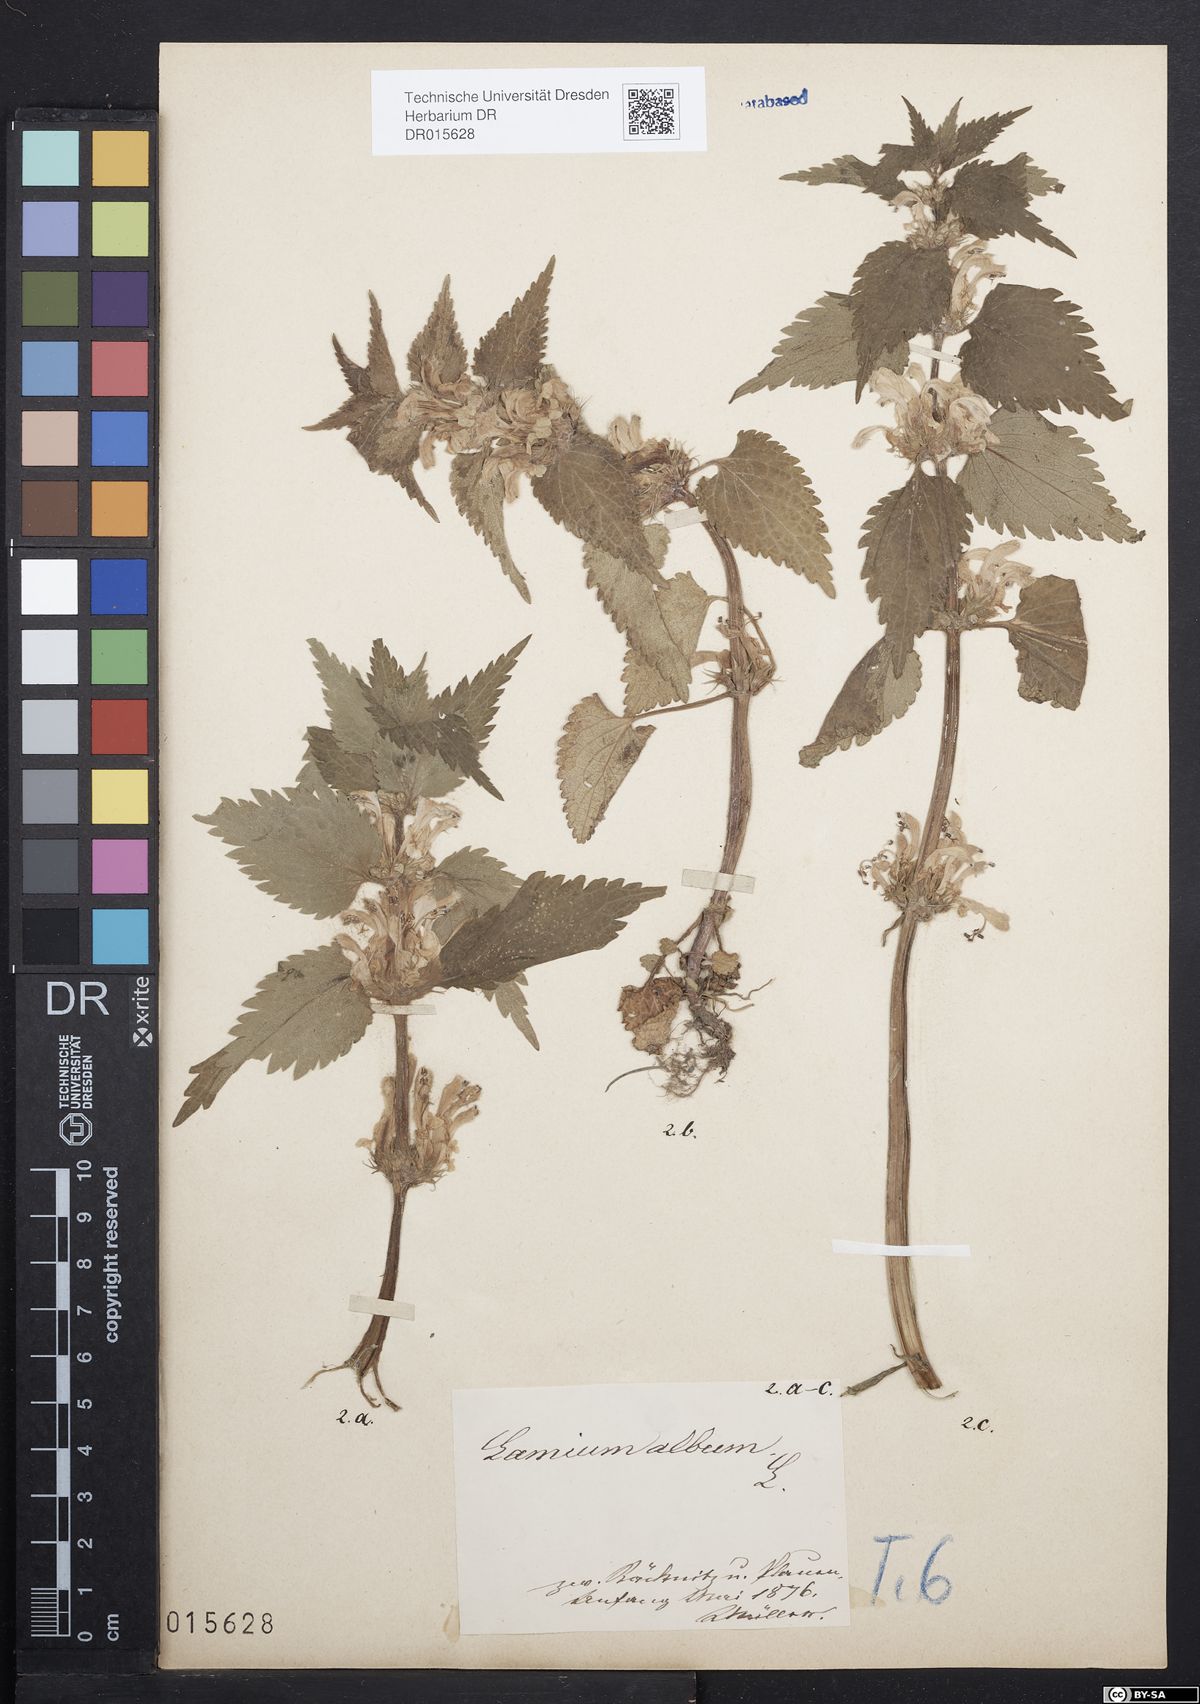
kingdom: Plantae
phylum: Tracheophyta
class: Magnoliopsida
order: Lamiales
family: Lamiaceae
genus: Lamium
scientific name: Lamium album
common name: White dead-nettle
